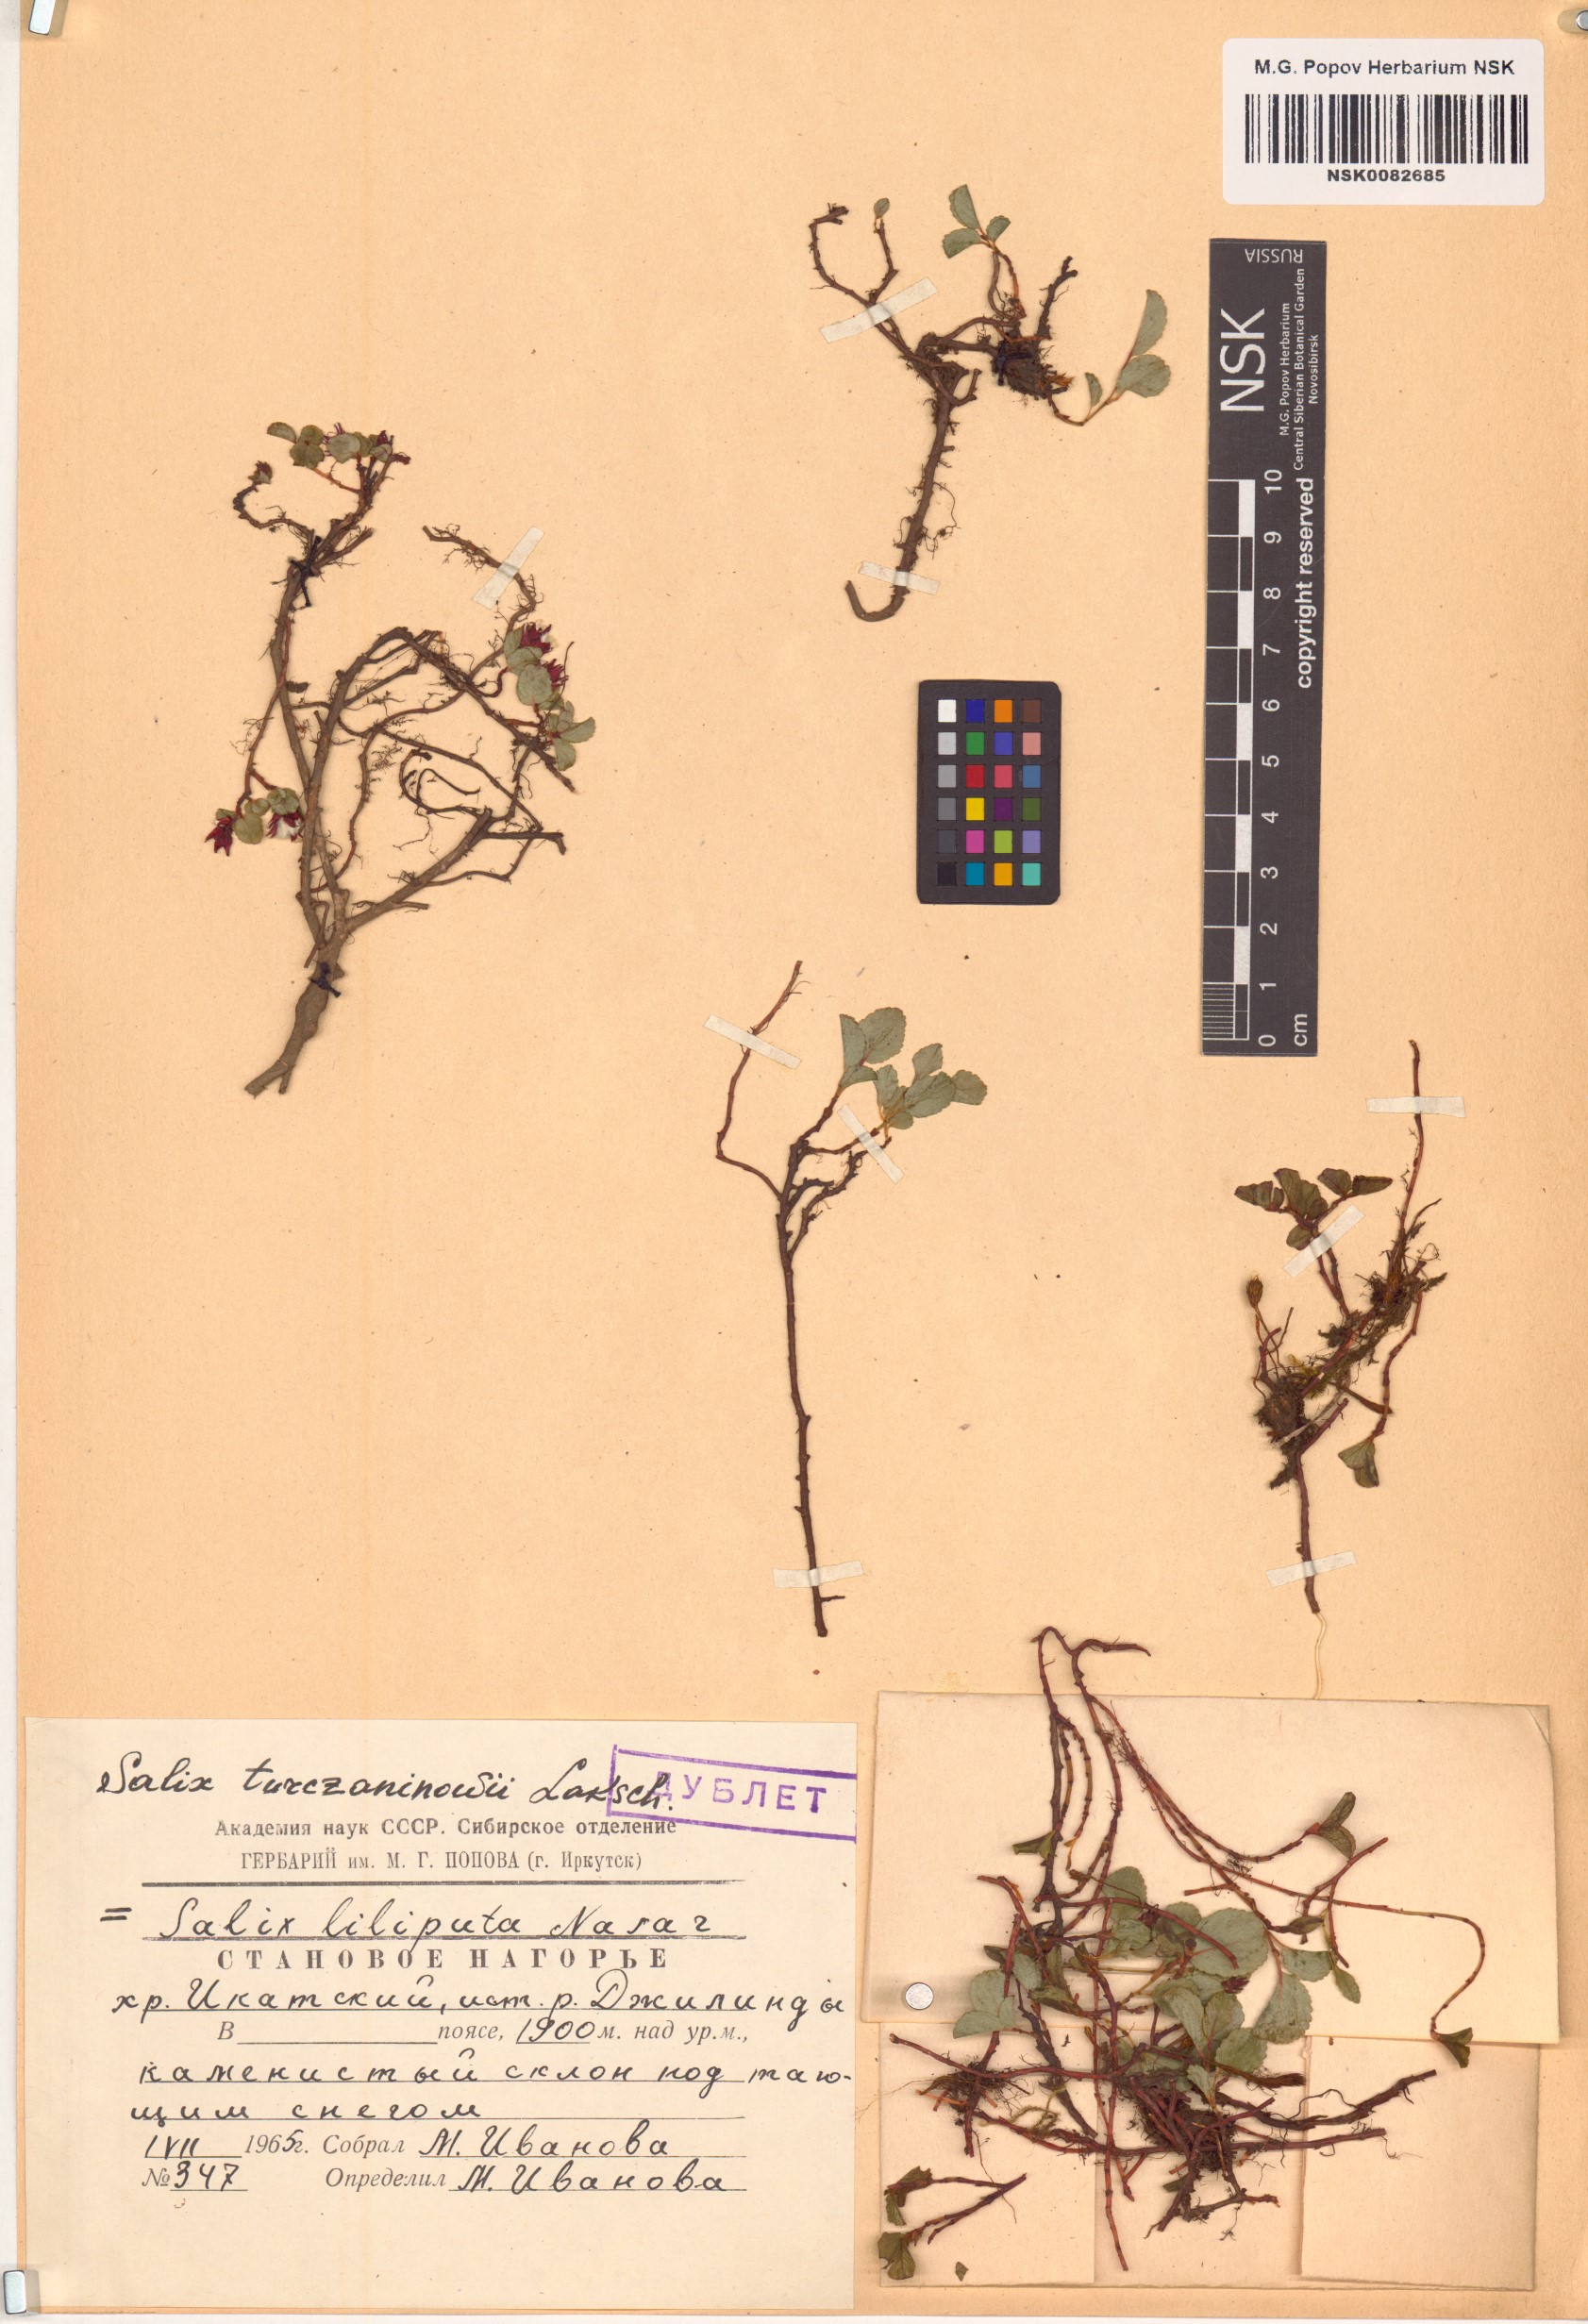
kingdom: Plantae
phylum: Tracheophyta
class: Magnoliopsida
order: Malpighiales
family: Salicaceae
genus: Salix
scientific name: Salix turczaninowii
